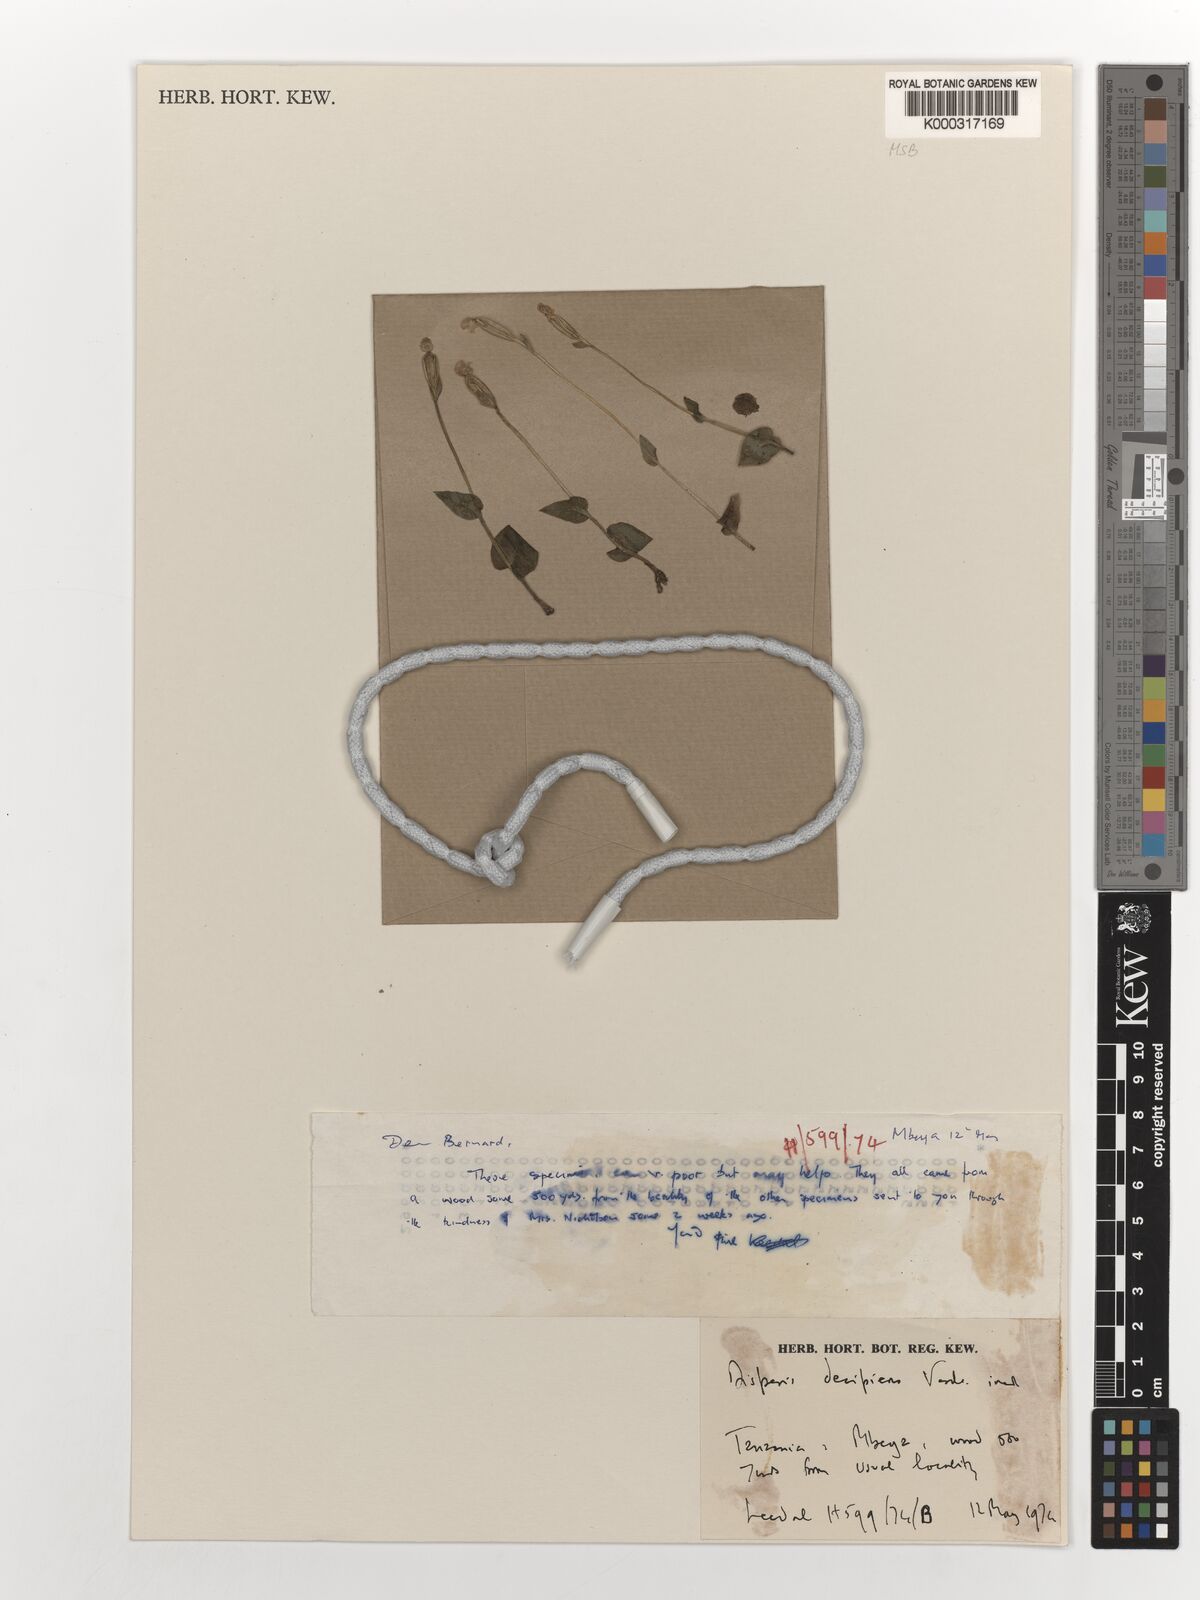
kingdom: Plantae
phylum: Tracheophyta
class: Liliopsida
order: Asparagales
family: Orchidaceae
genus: Disperis
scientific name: Disperis decipiens
